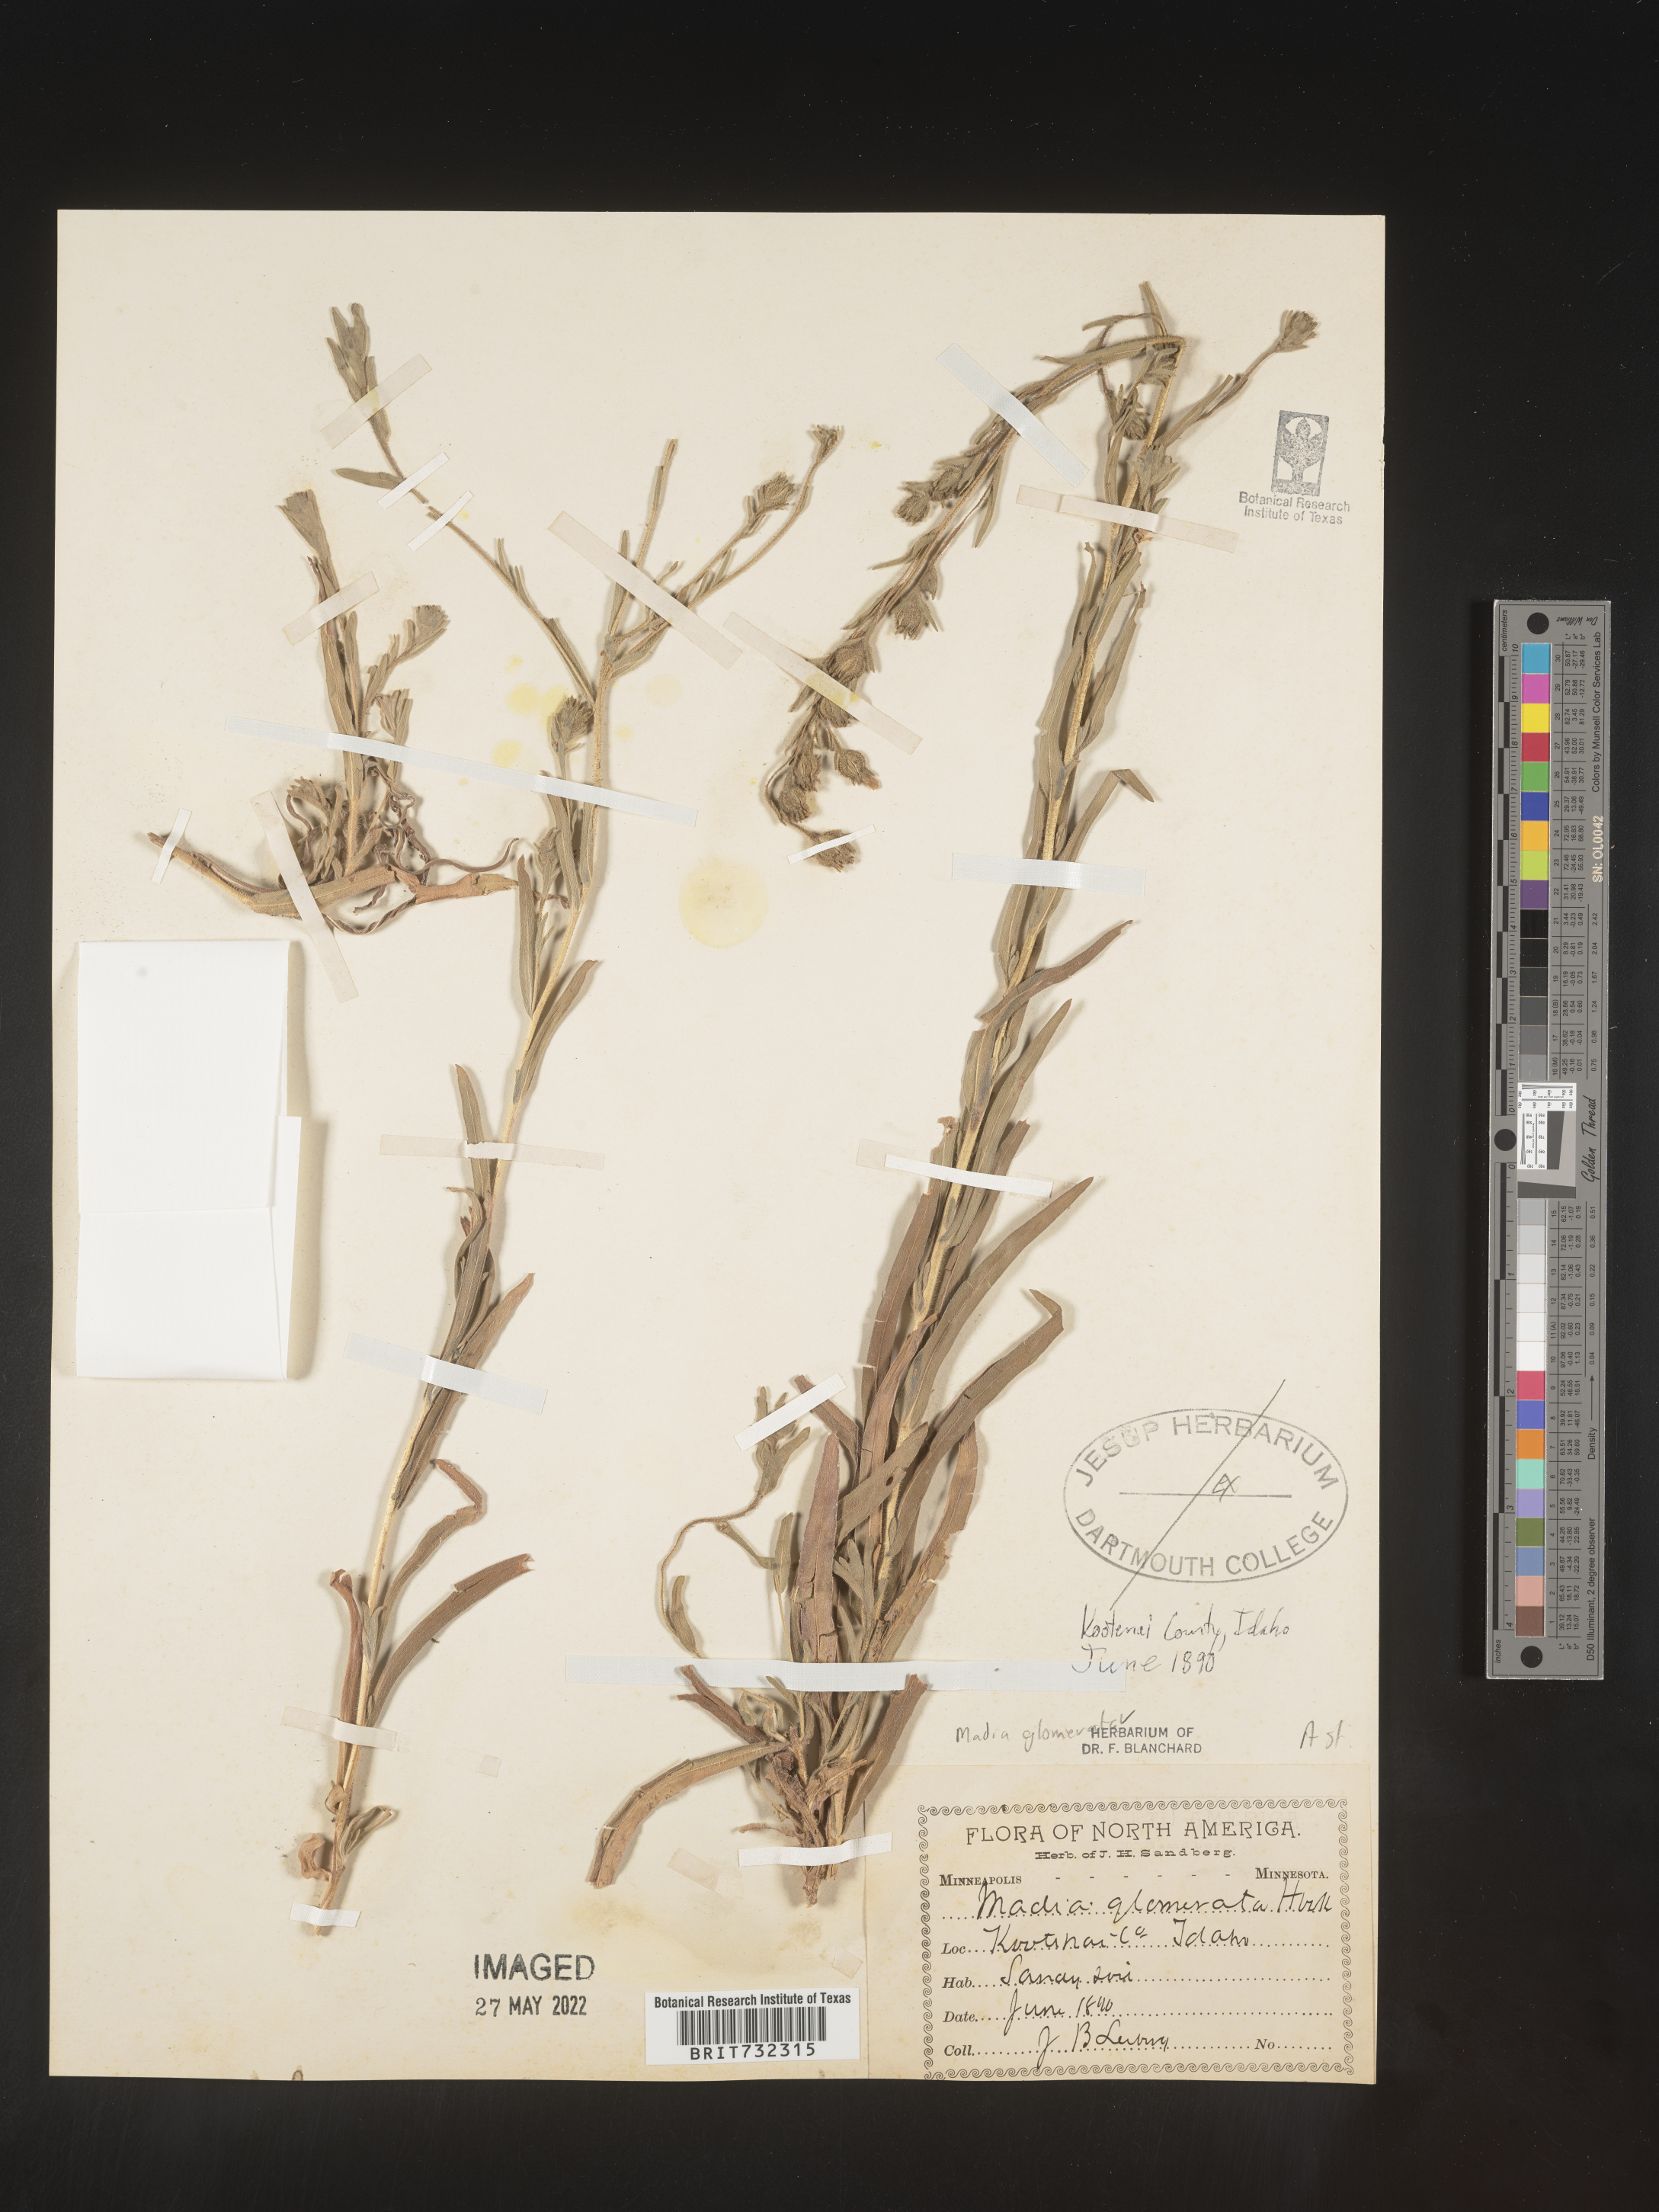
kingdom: Plantae
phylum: Tracheophyta
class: Magnoliopsida
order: Asterales
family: Asteraceae
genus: Madia
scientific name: Madia glomerata
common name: Mountain tarweed
